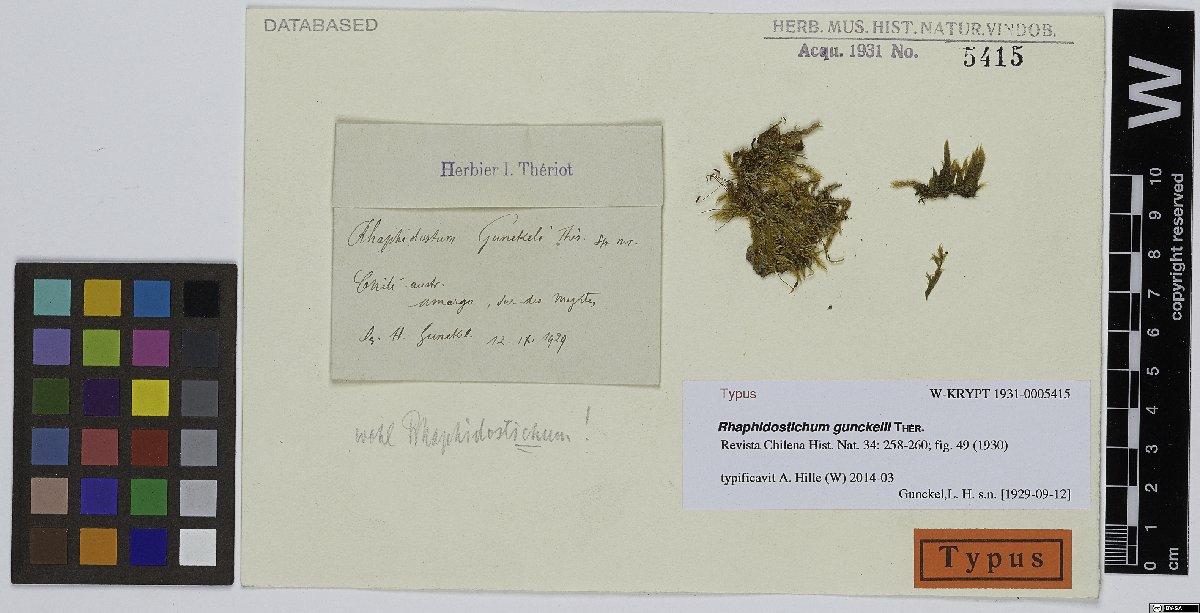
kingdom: Plantae
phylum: Bryophyta
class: Bryopsida
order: Hypnales
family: Sematophyllaceae
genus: Sematophyllum
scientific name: Sematophyllum gunckelii
